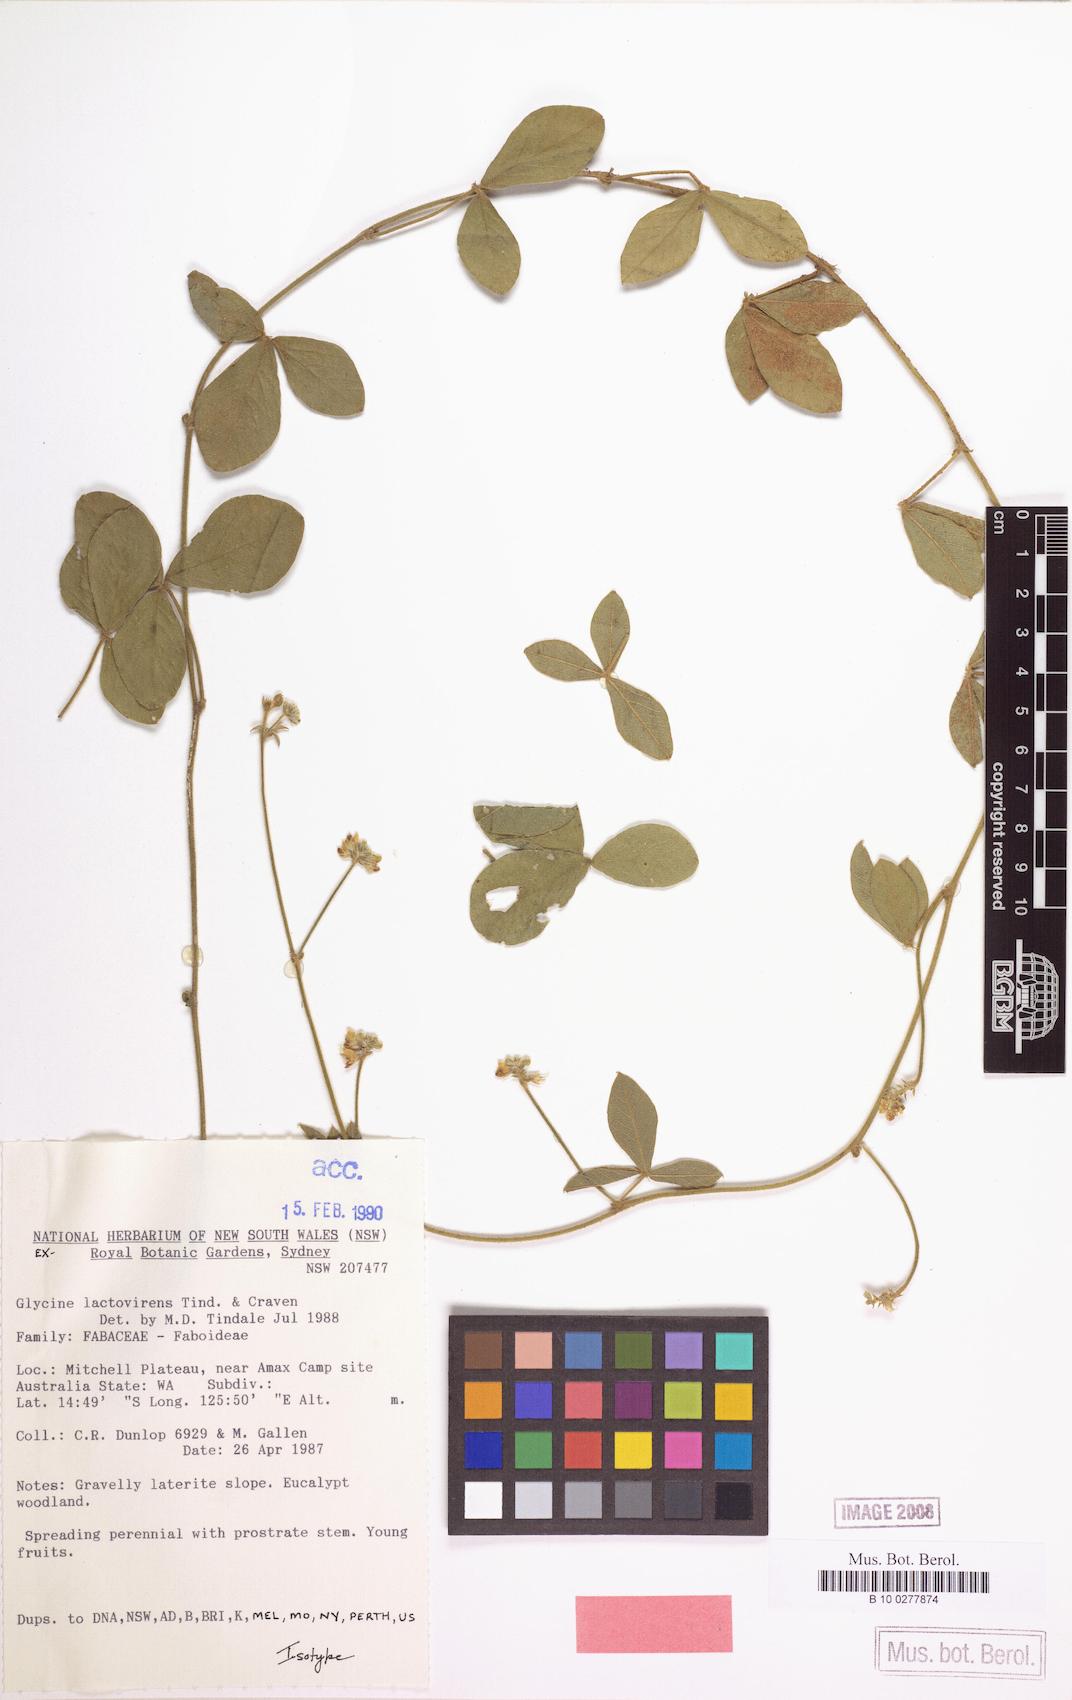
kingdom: Plantae
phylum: Tracheophyta
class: Magnoliopsida
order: Fabales
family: Fabaceae
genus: Glycine
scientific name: Glycine lactovirens
